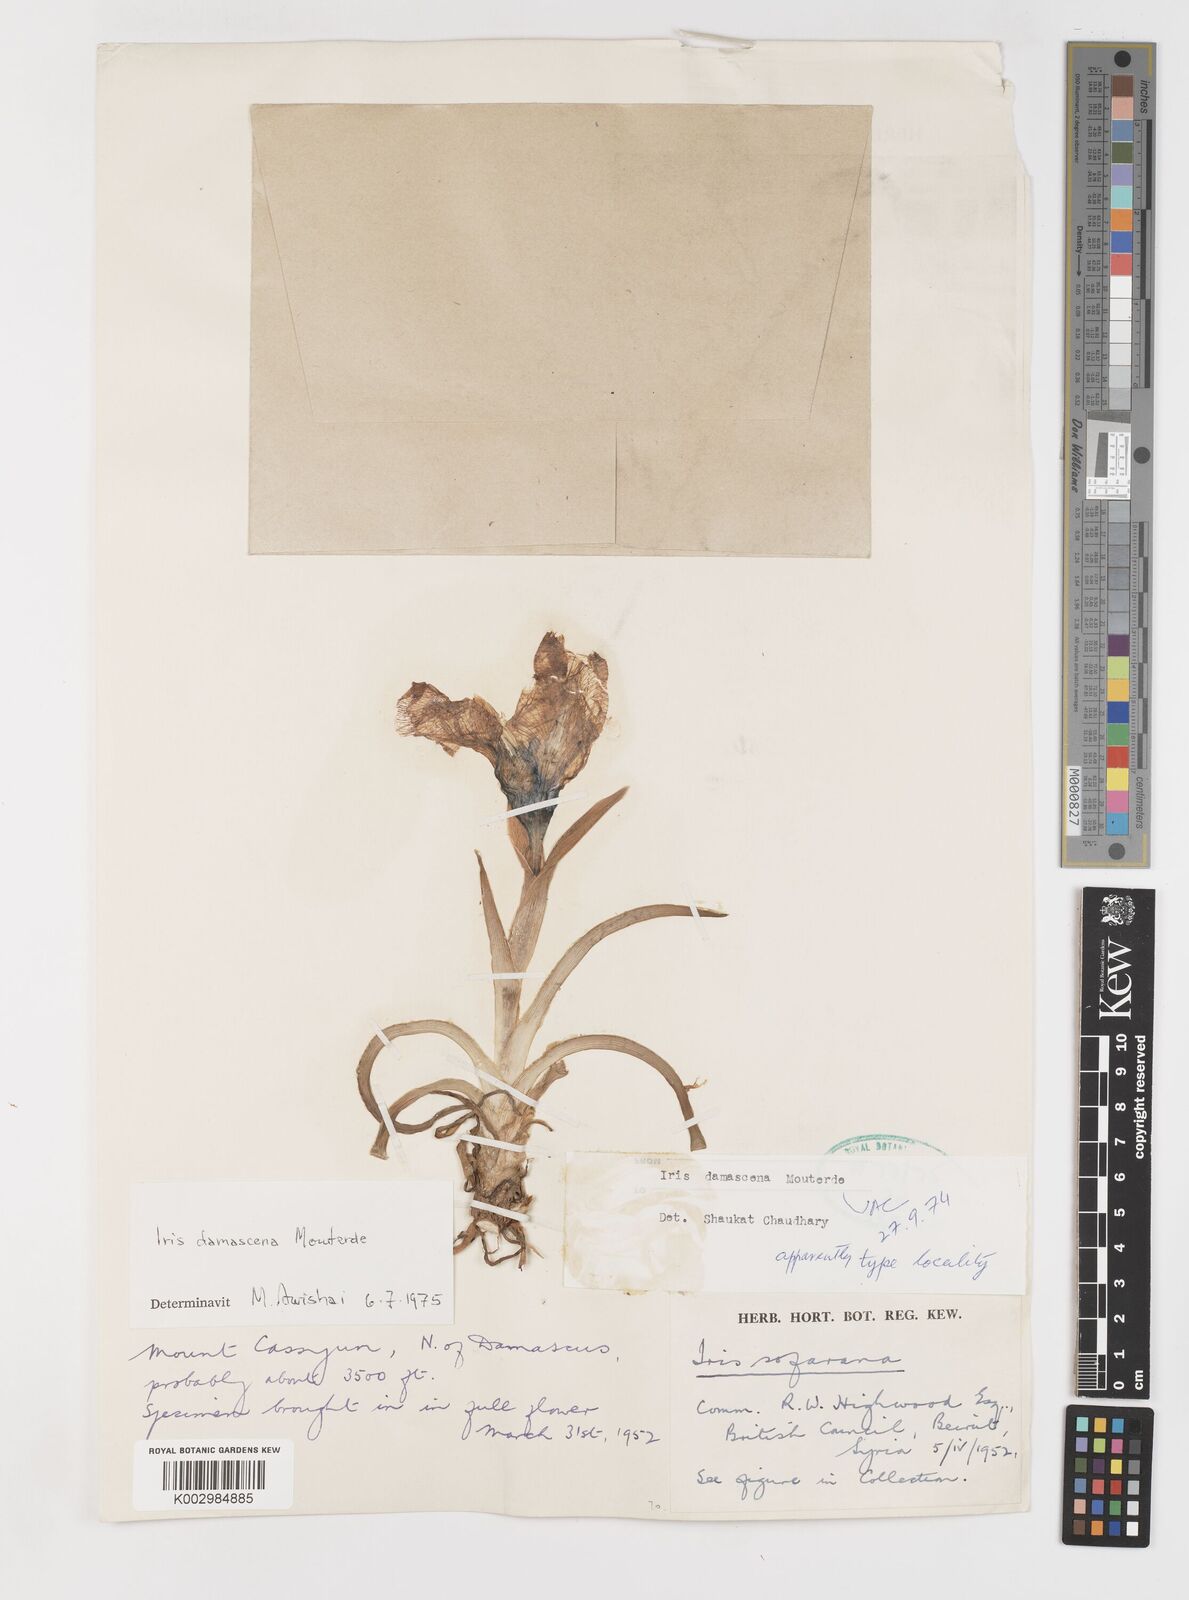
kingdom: Plantae
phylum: Tracheophyta
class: Liliopsida
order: Asparagales
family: Iridaceae
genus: Iris
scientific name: Iris damascena
